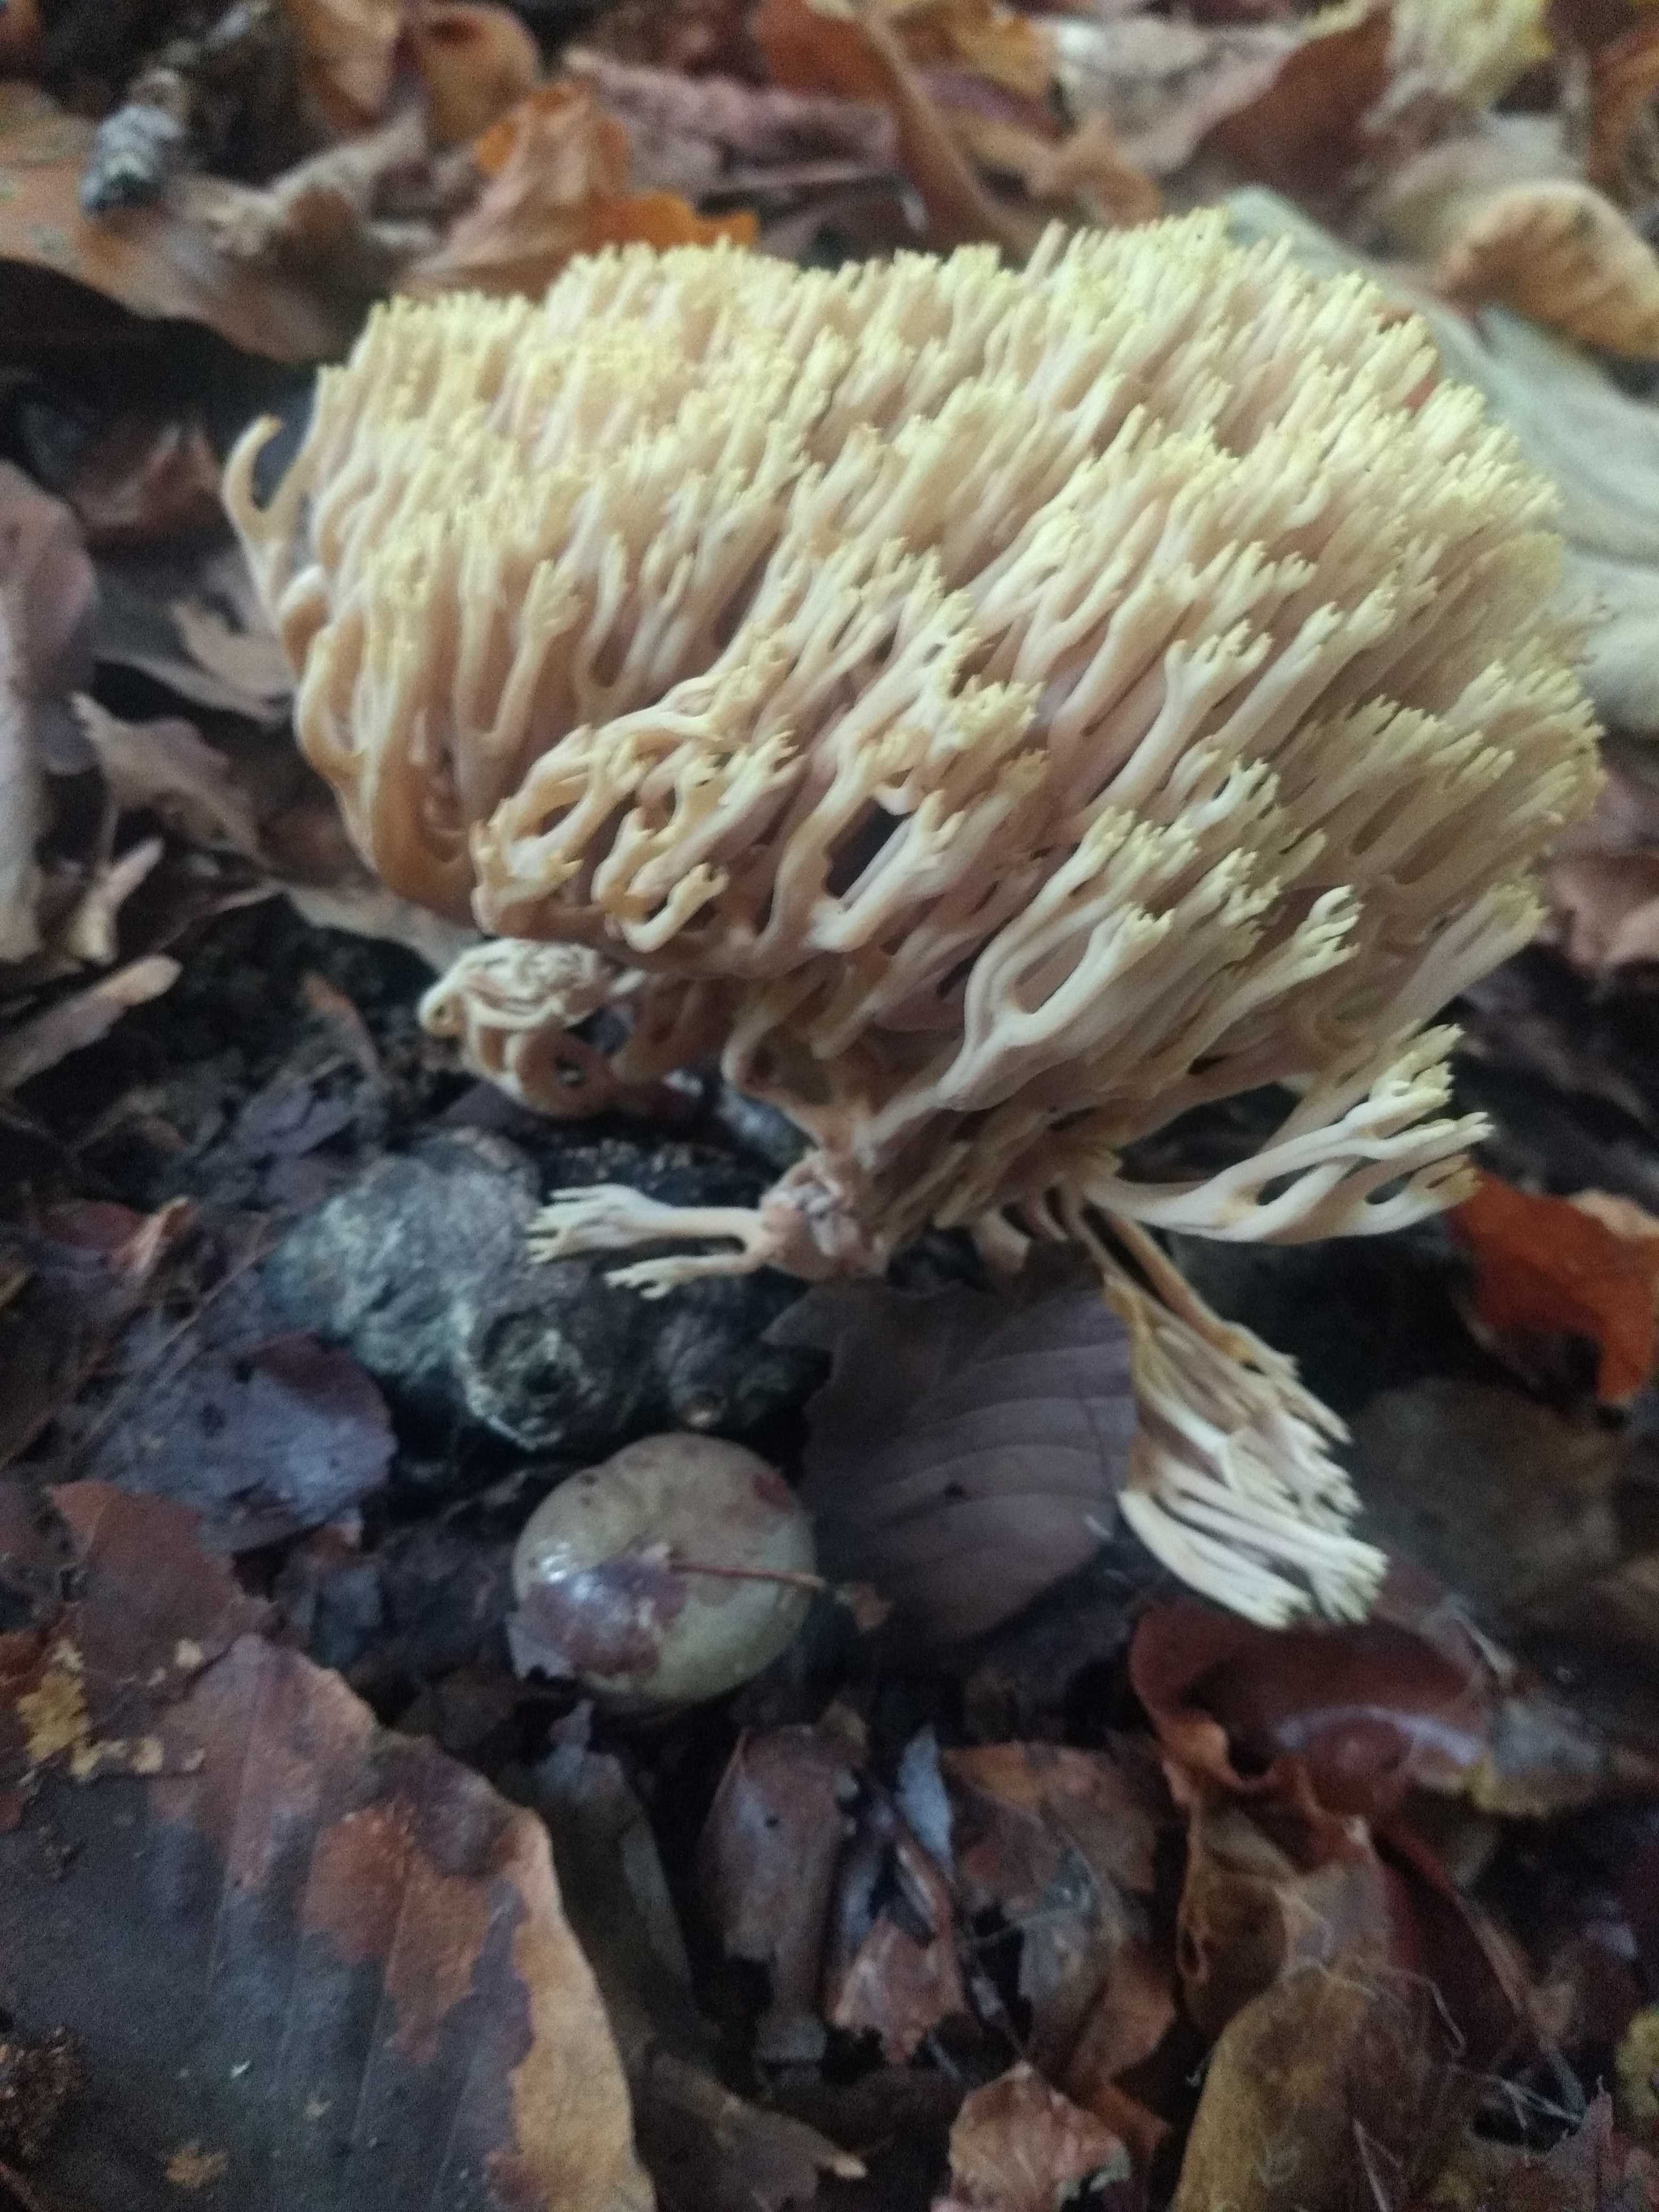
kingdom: Fungi
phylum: Basidiomycota
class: Agaricomycetes
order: Gomphales
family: Gomphaceae
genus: Ramaria
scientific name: Ramaria stricta
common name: rank koralsvamp
